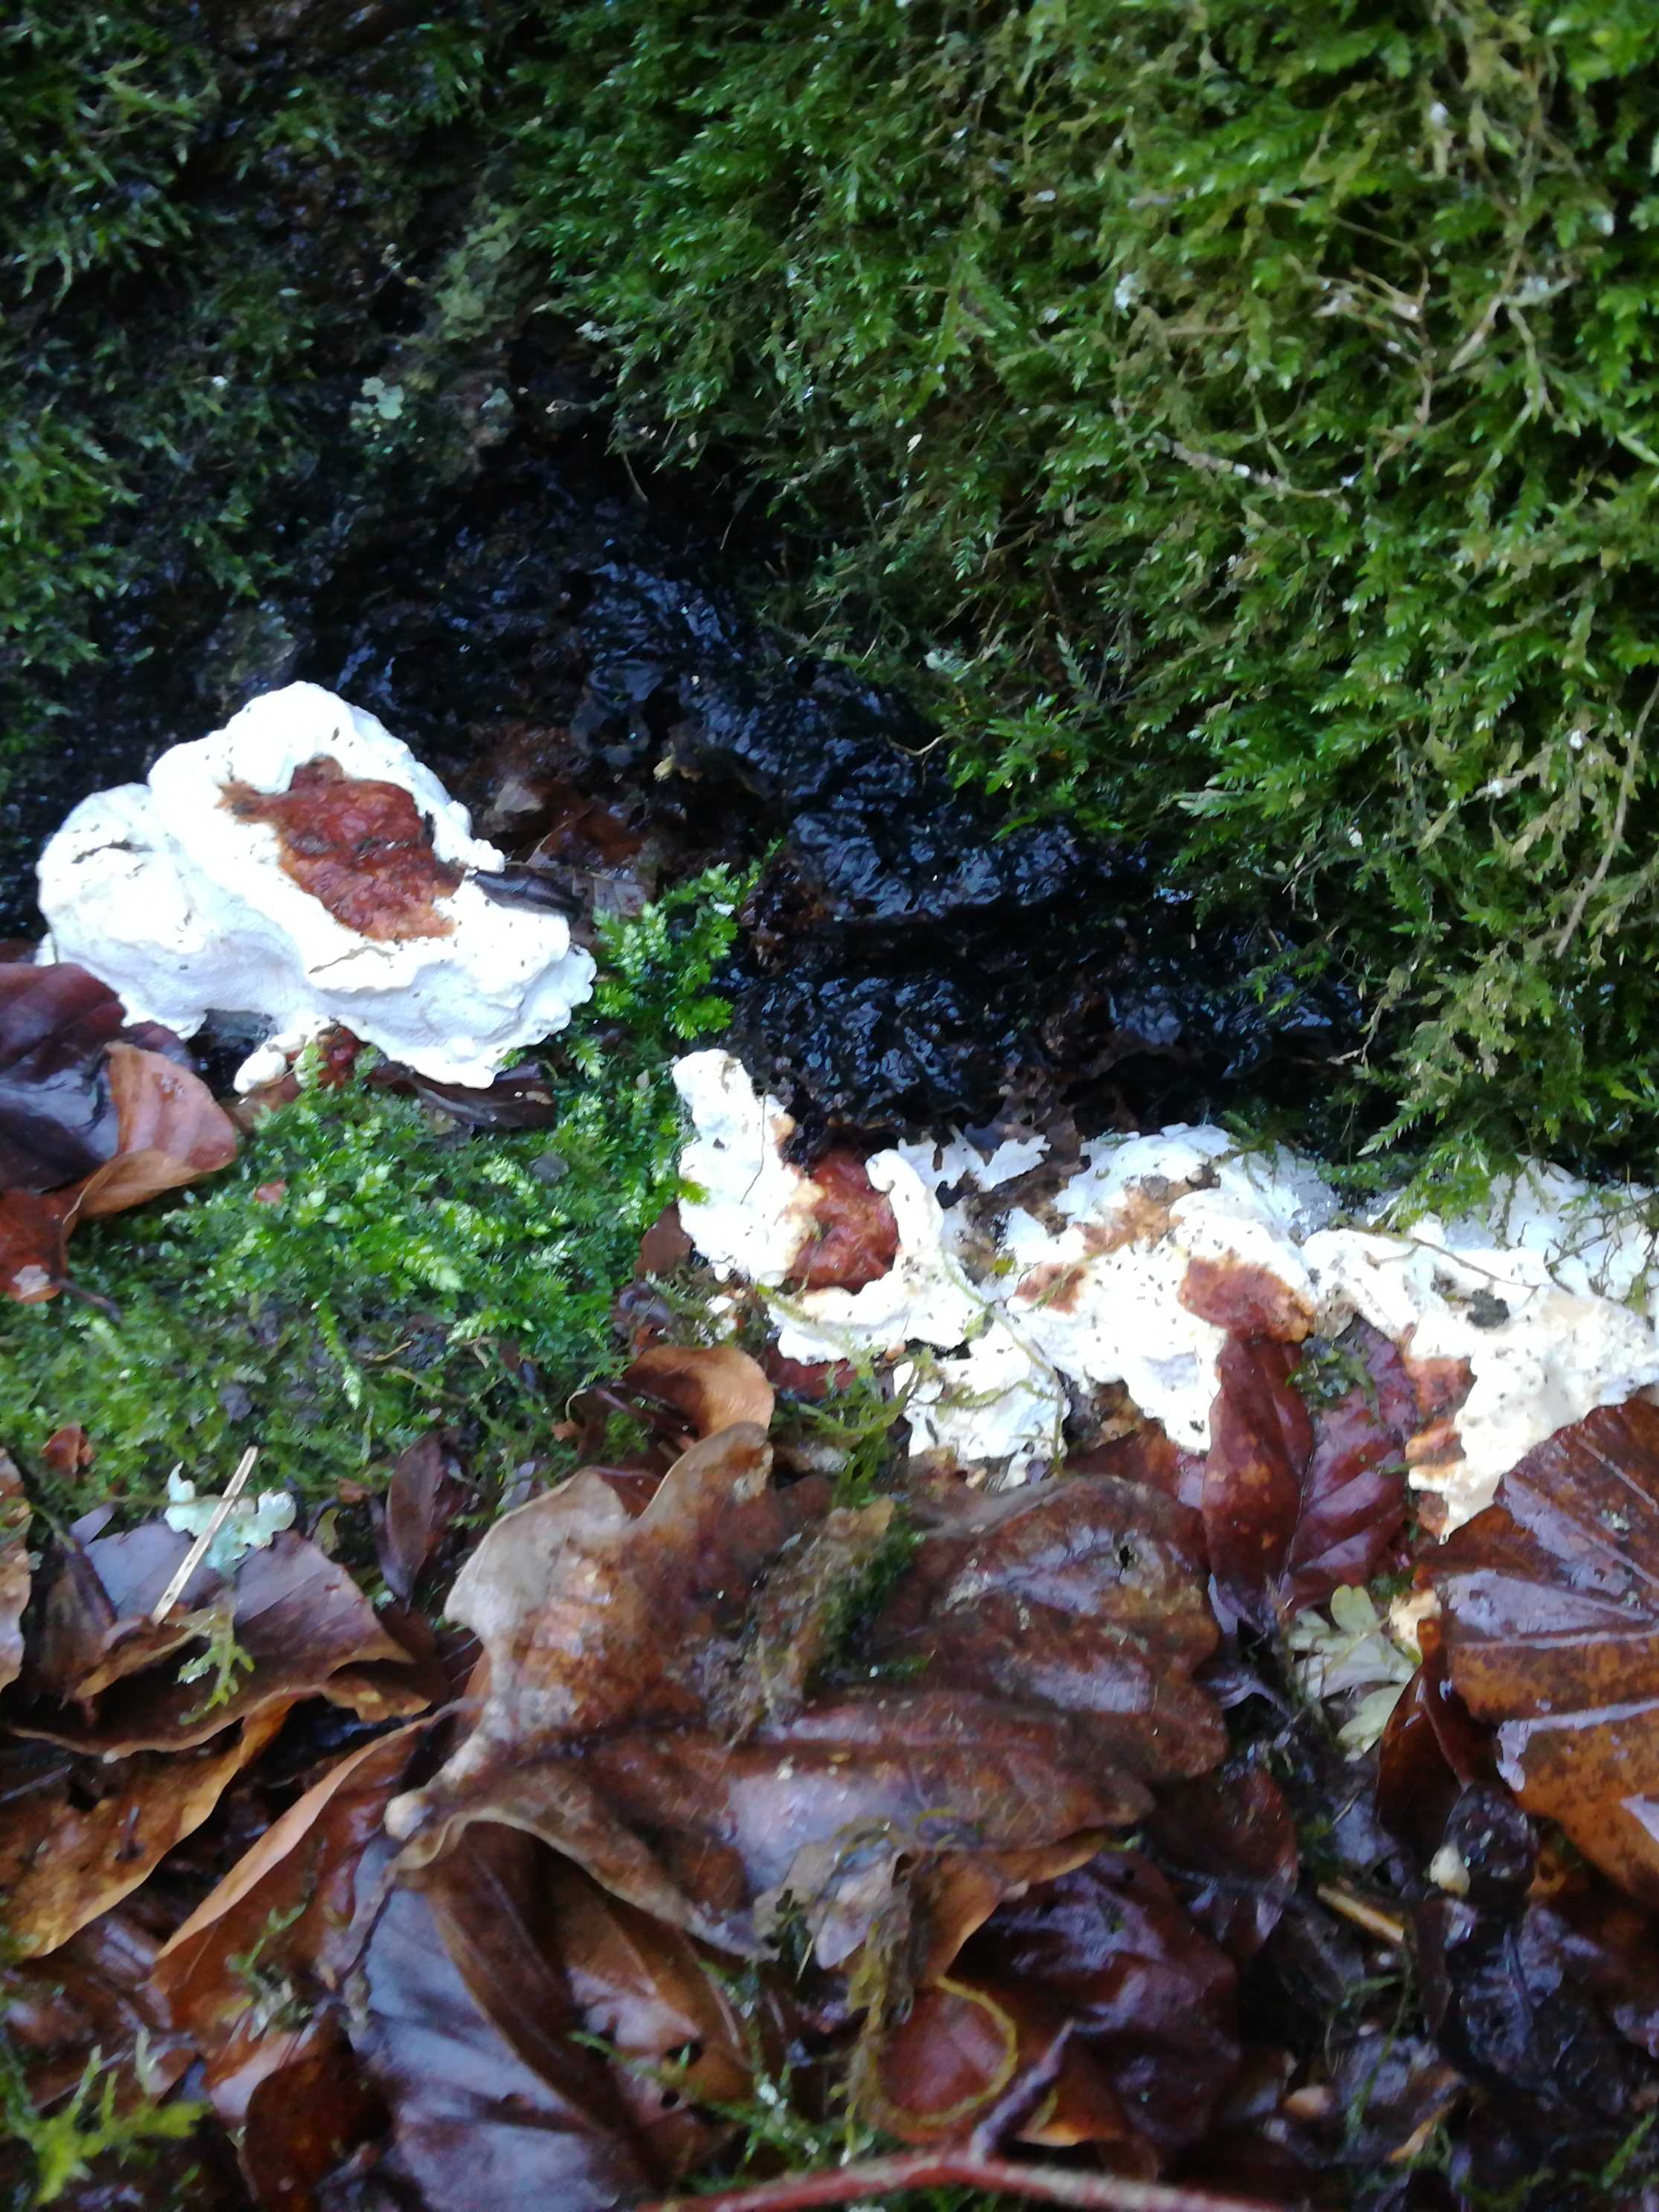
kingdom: Fungi
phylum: Basidiomycota
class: Agaricomycetes
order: Russulales
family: Bondarzewiaceae
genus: Heterobasidion
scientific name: Heterobasidion annosum
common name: almindelig rodfordærver
